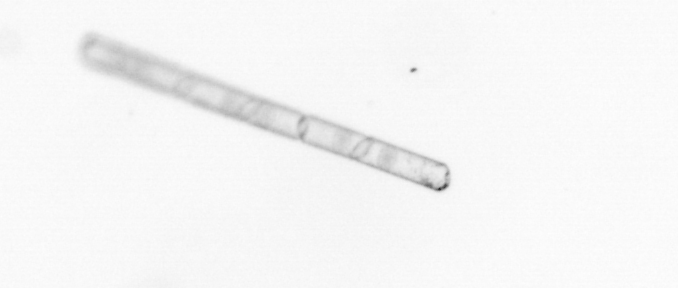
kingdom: Chromista
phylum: Ochrophyta
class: Bacillariophyceae
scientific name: Bacillariophyceae
